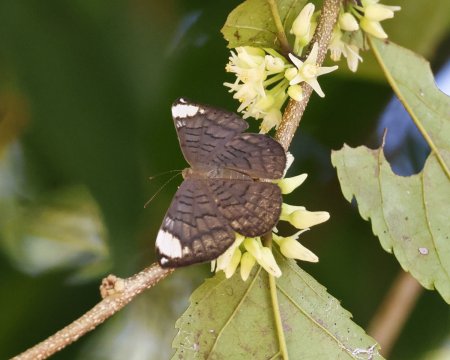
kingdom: Animalia
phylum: Arthropoda
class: Insecta
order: Lepidoptera
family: Lycaenidae
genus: Emesis
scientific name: Emesis lucinda
